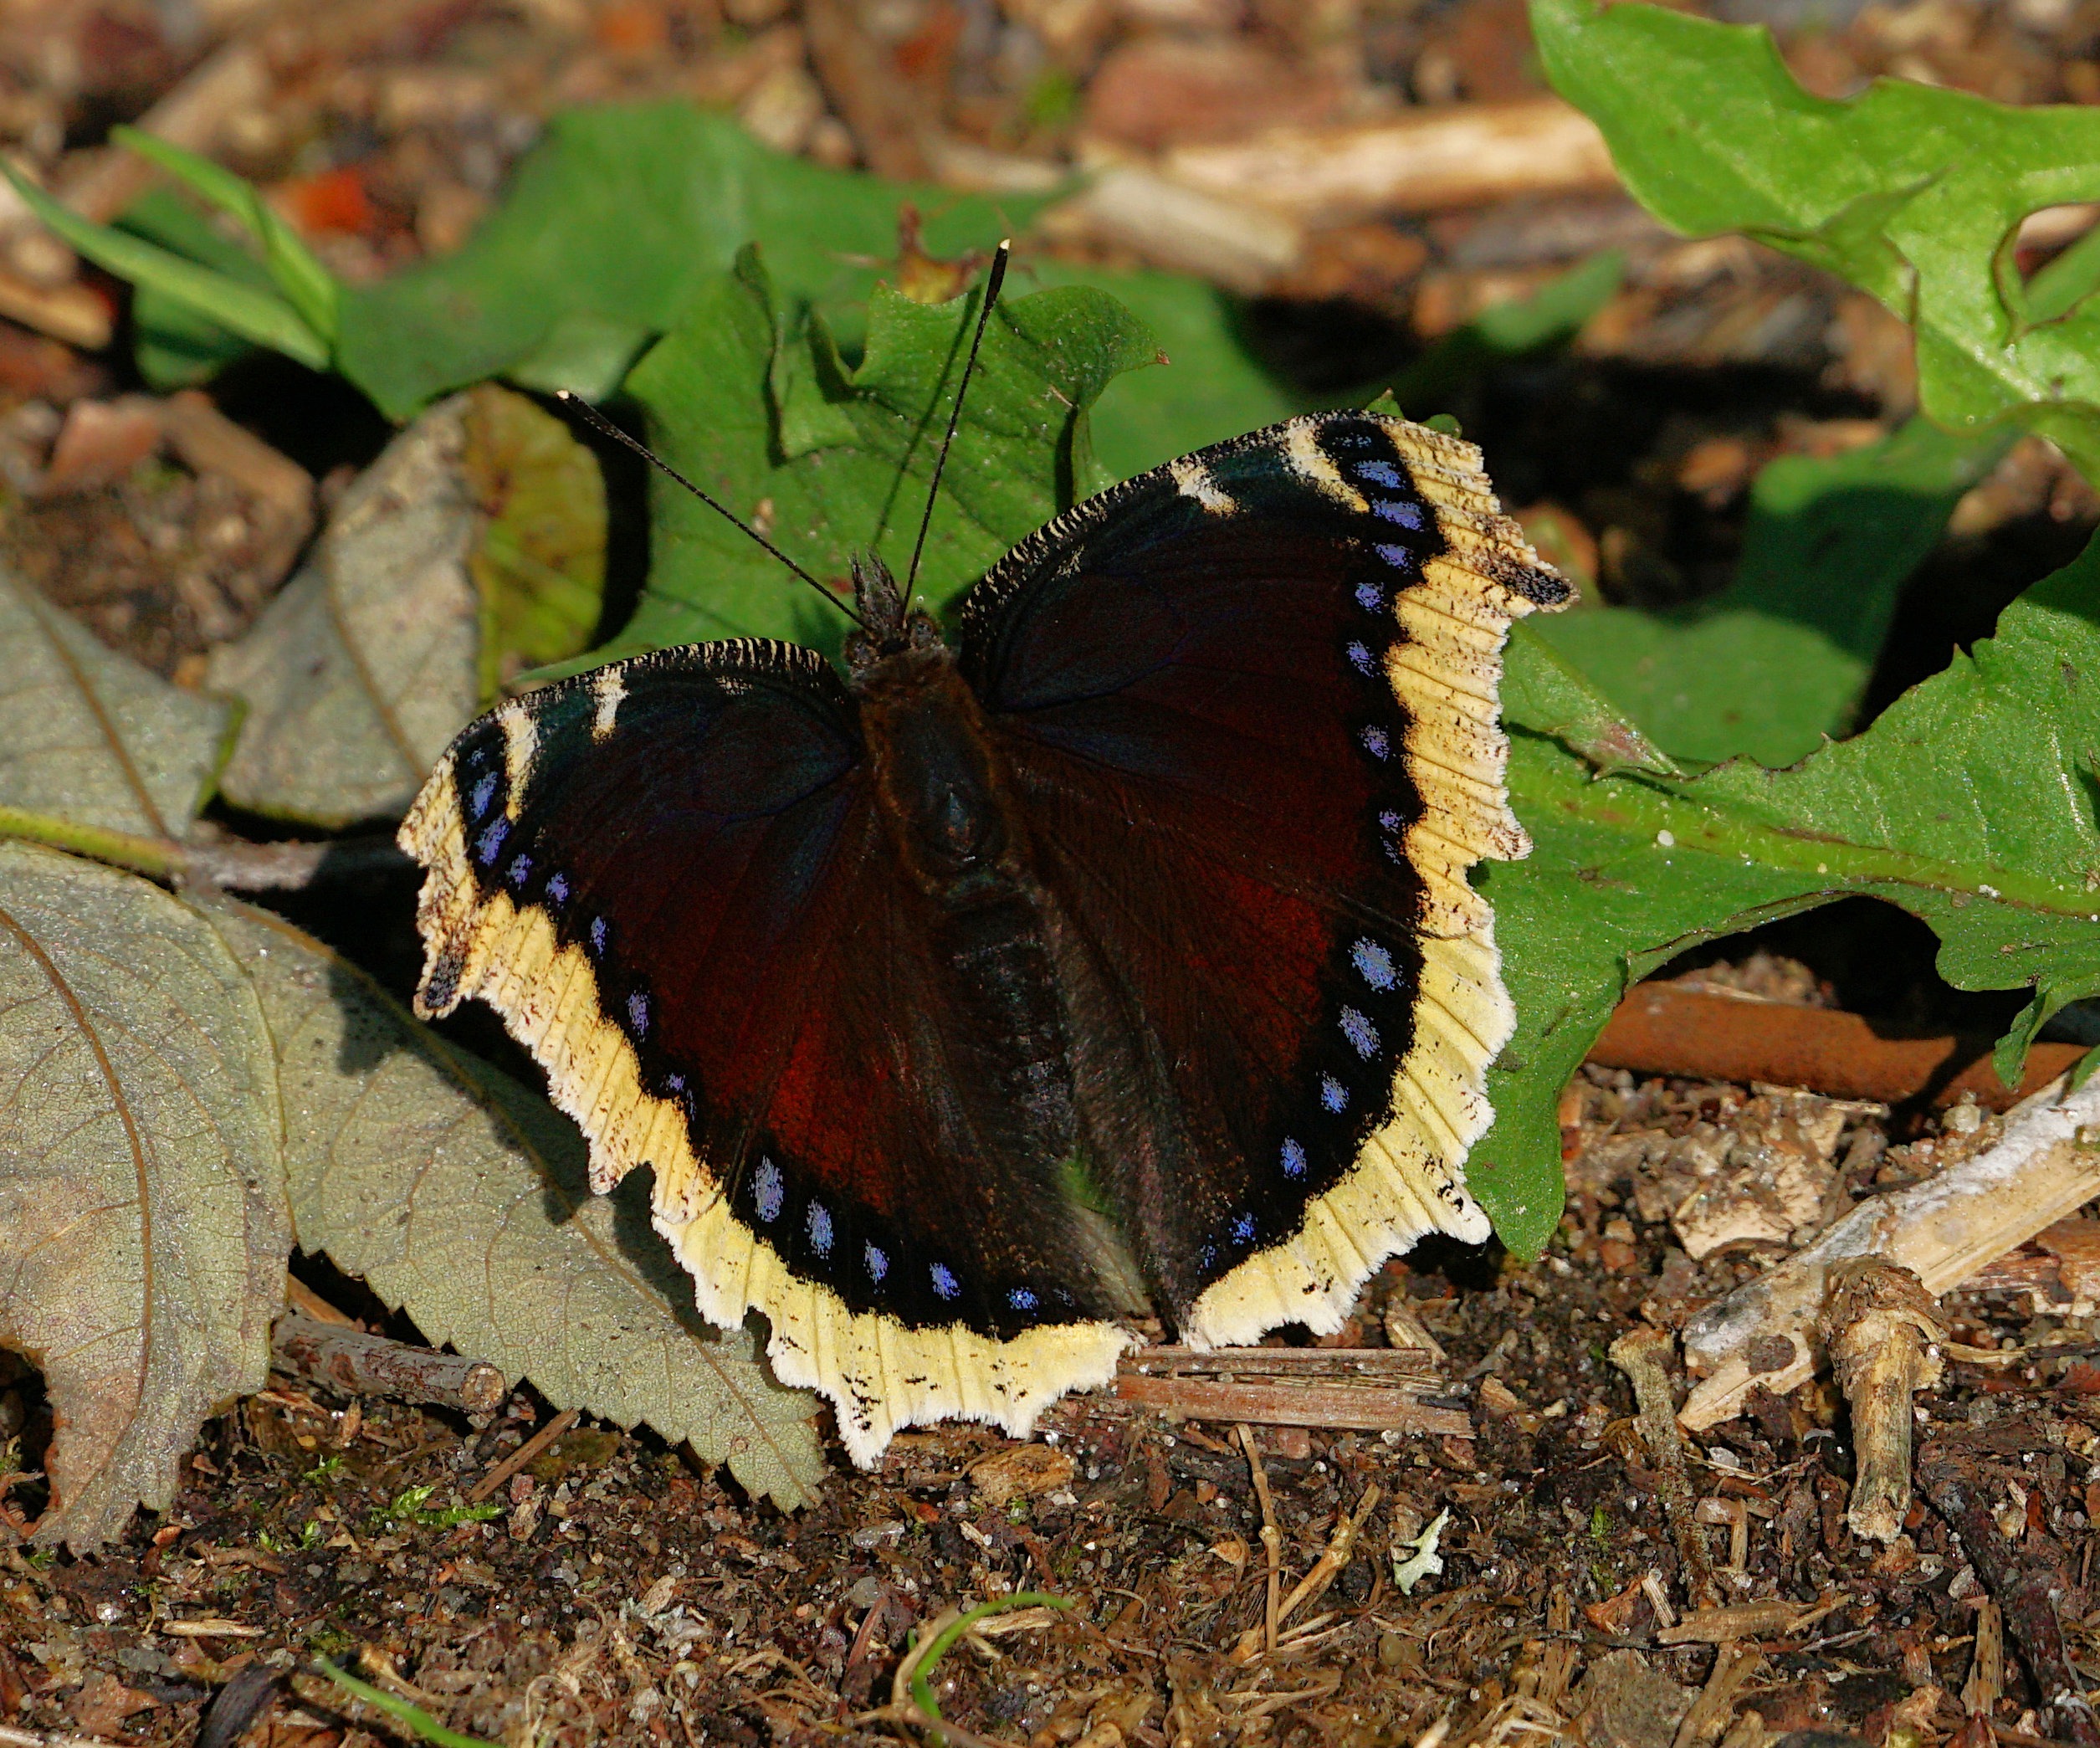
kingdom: Animalia
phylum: Arthropoda
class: Insecta
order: Lepidoptera
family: Nymphalidae
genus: Nymphalis
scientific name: Nymphalis antiopa
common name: Sørgekåbe
